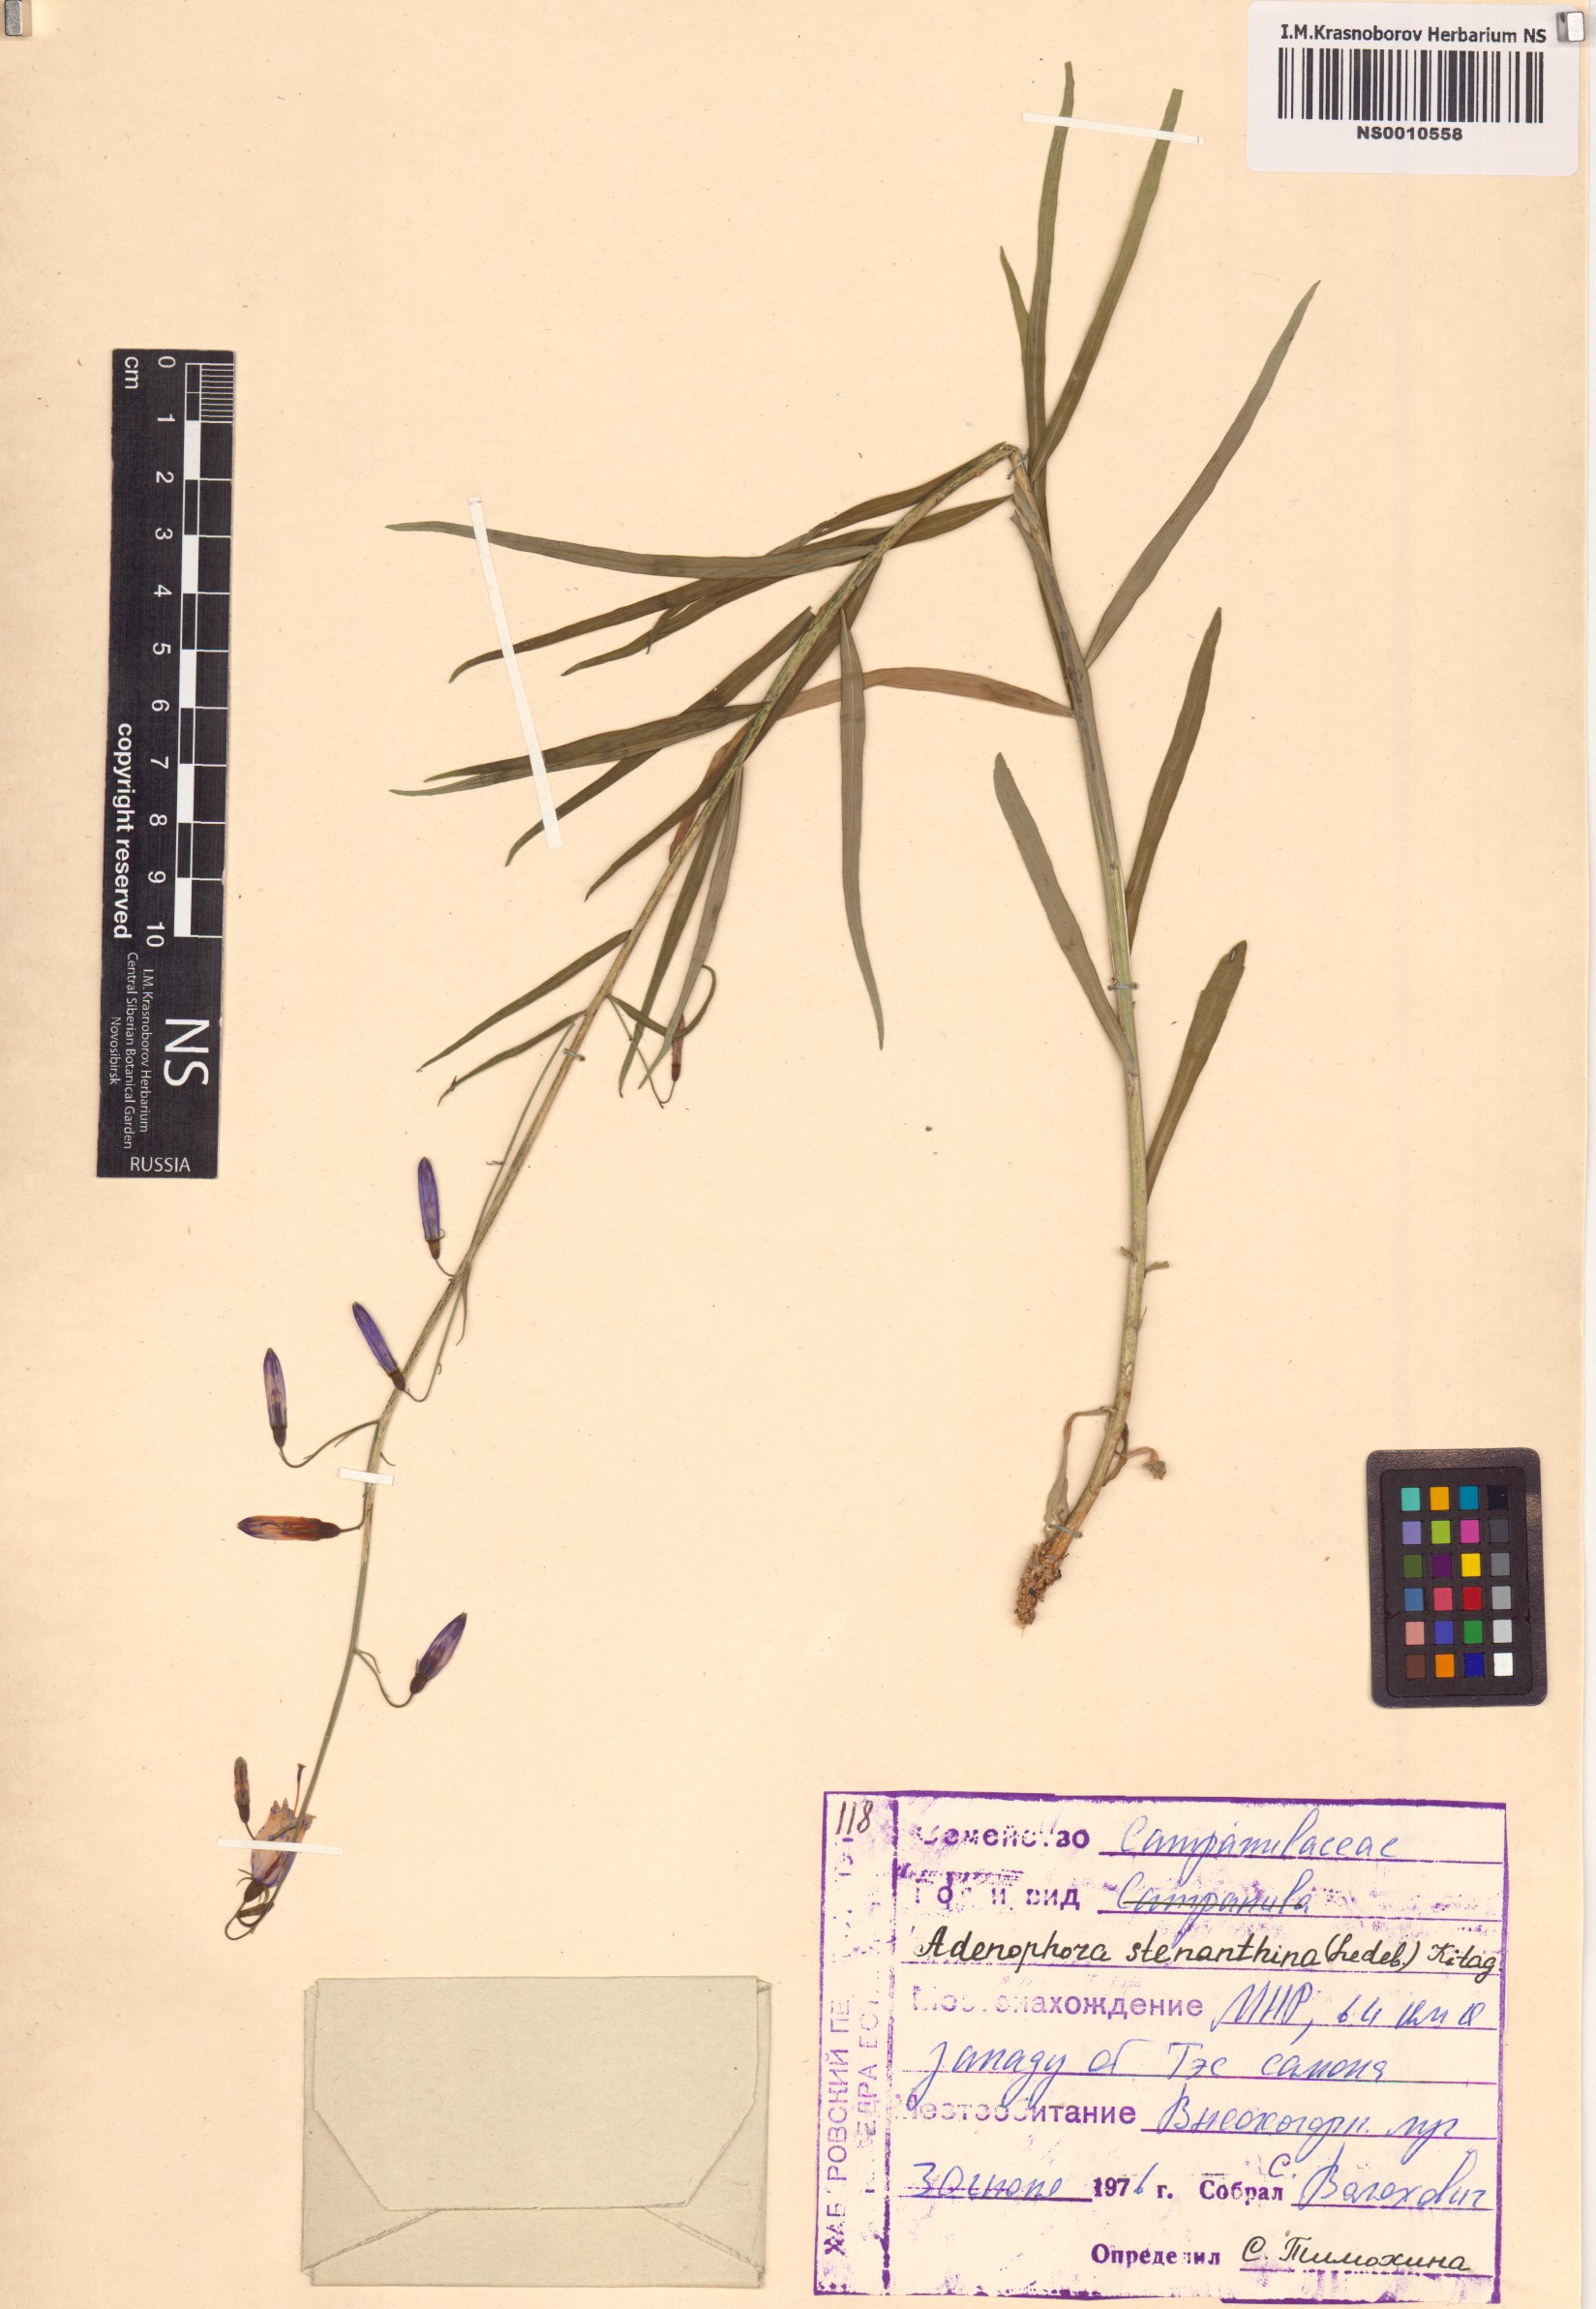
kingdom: Plantae
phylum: Tracheophyta
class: Magnoliopsida
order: Asterales
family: Campanulaceae
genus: Adenophora
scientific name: Adenophora stenanthina
